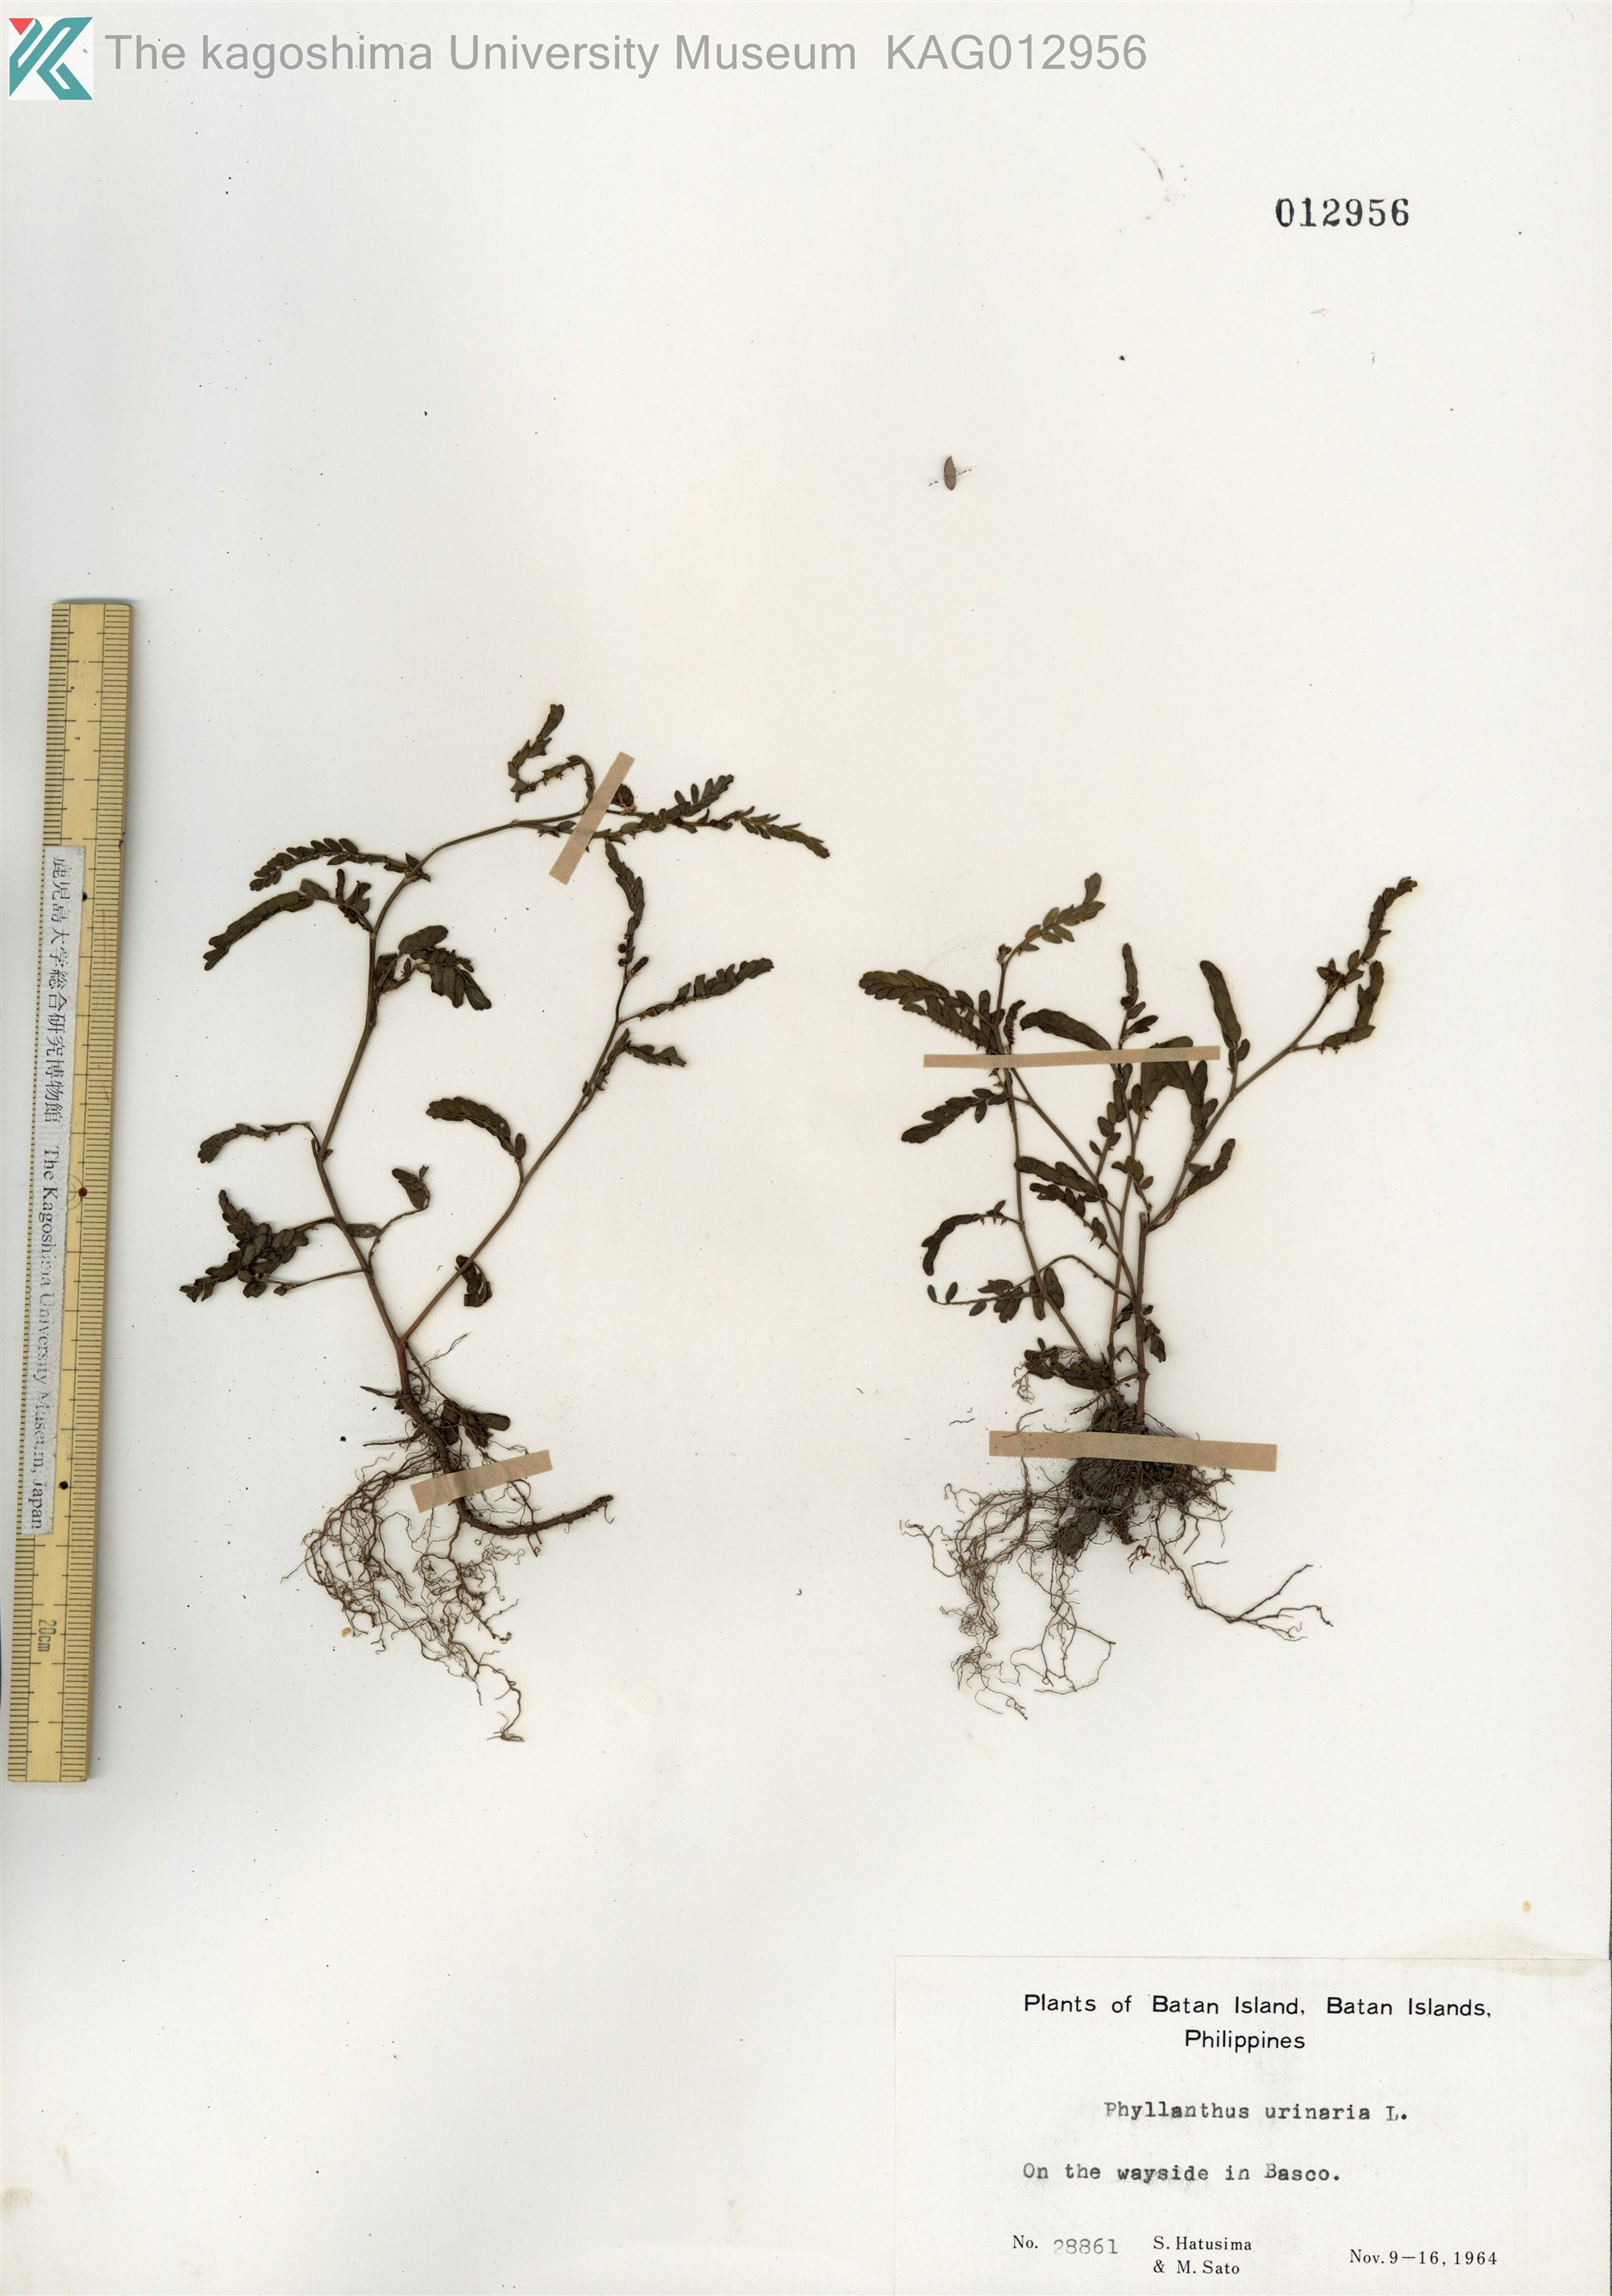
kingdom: Plantae
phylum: Tracheophyta
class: Magnoliopsida
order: Malpighiales
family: Phyllanthaceae
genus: Phyllanthus
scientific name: Phyllanthus urinaria
